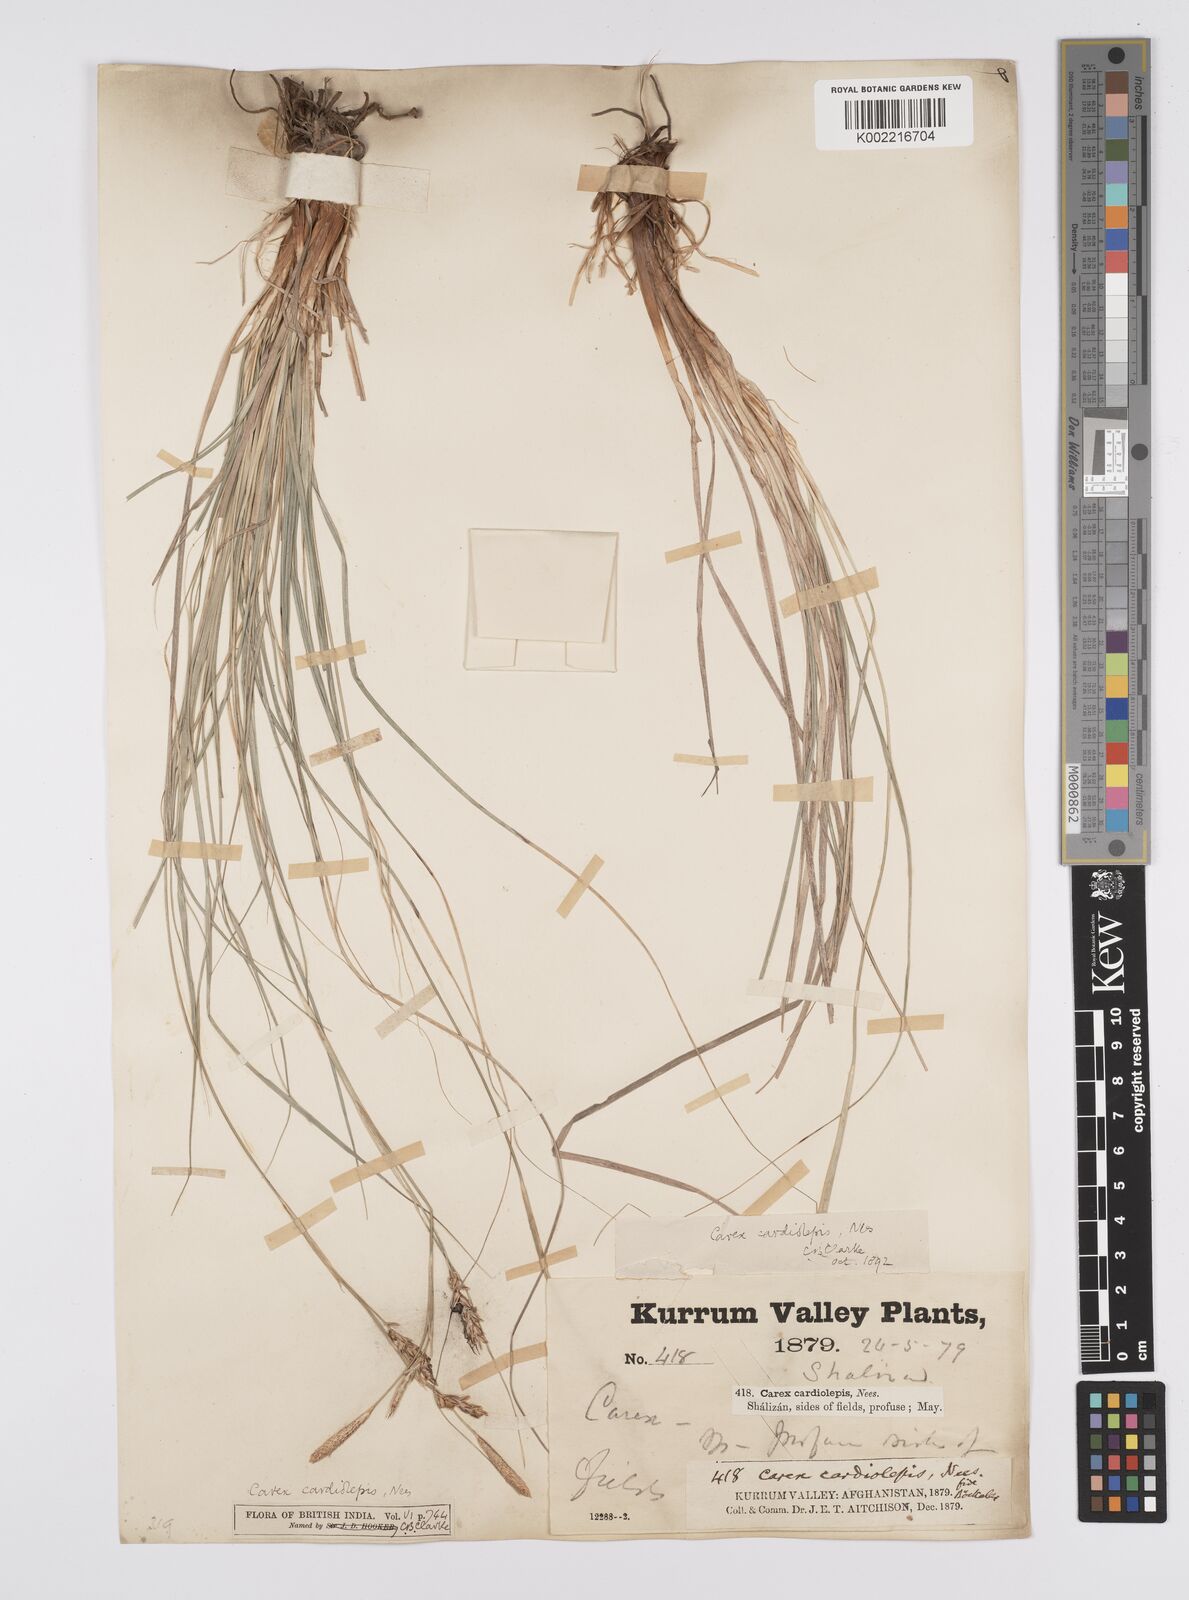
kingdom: Plantae
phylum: Tracheophyta
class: Liliopsida
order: Poales
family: Cyperaceae
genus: Carex
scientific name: Carex cardiolepis
